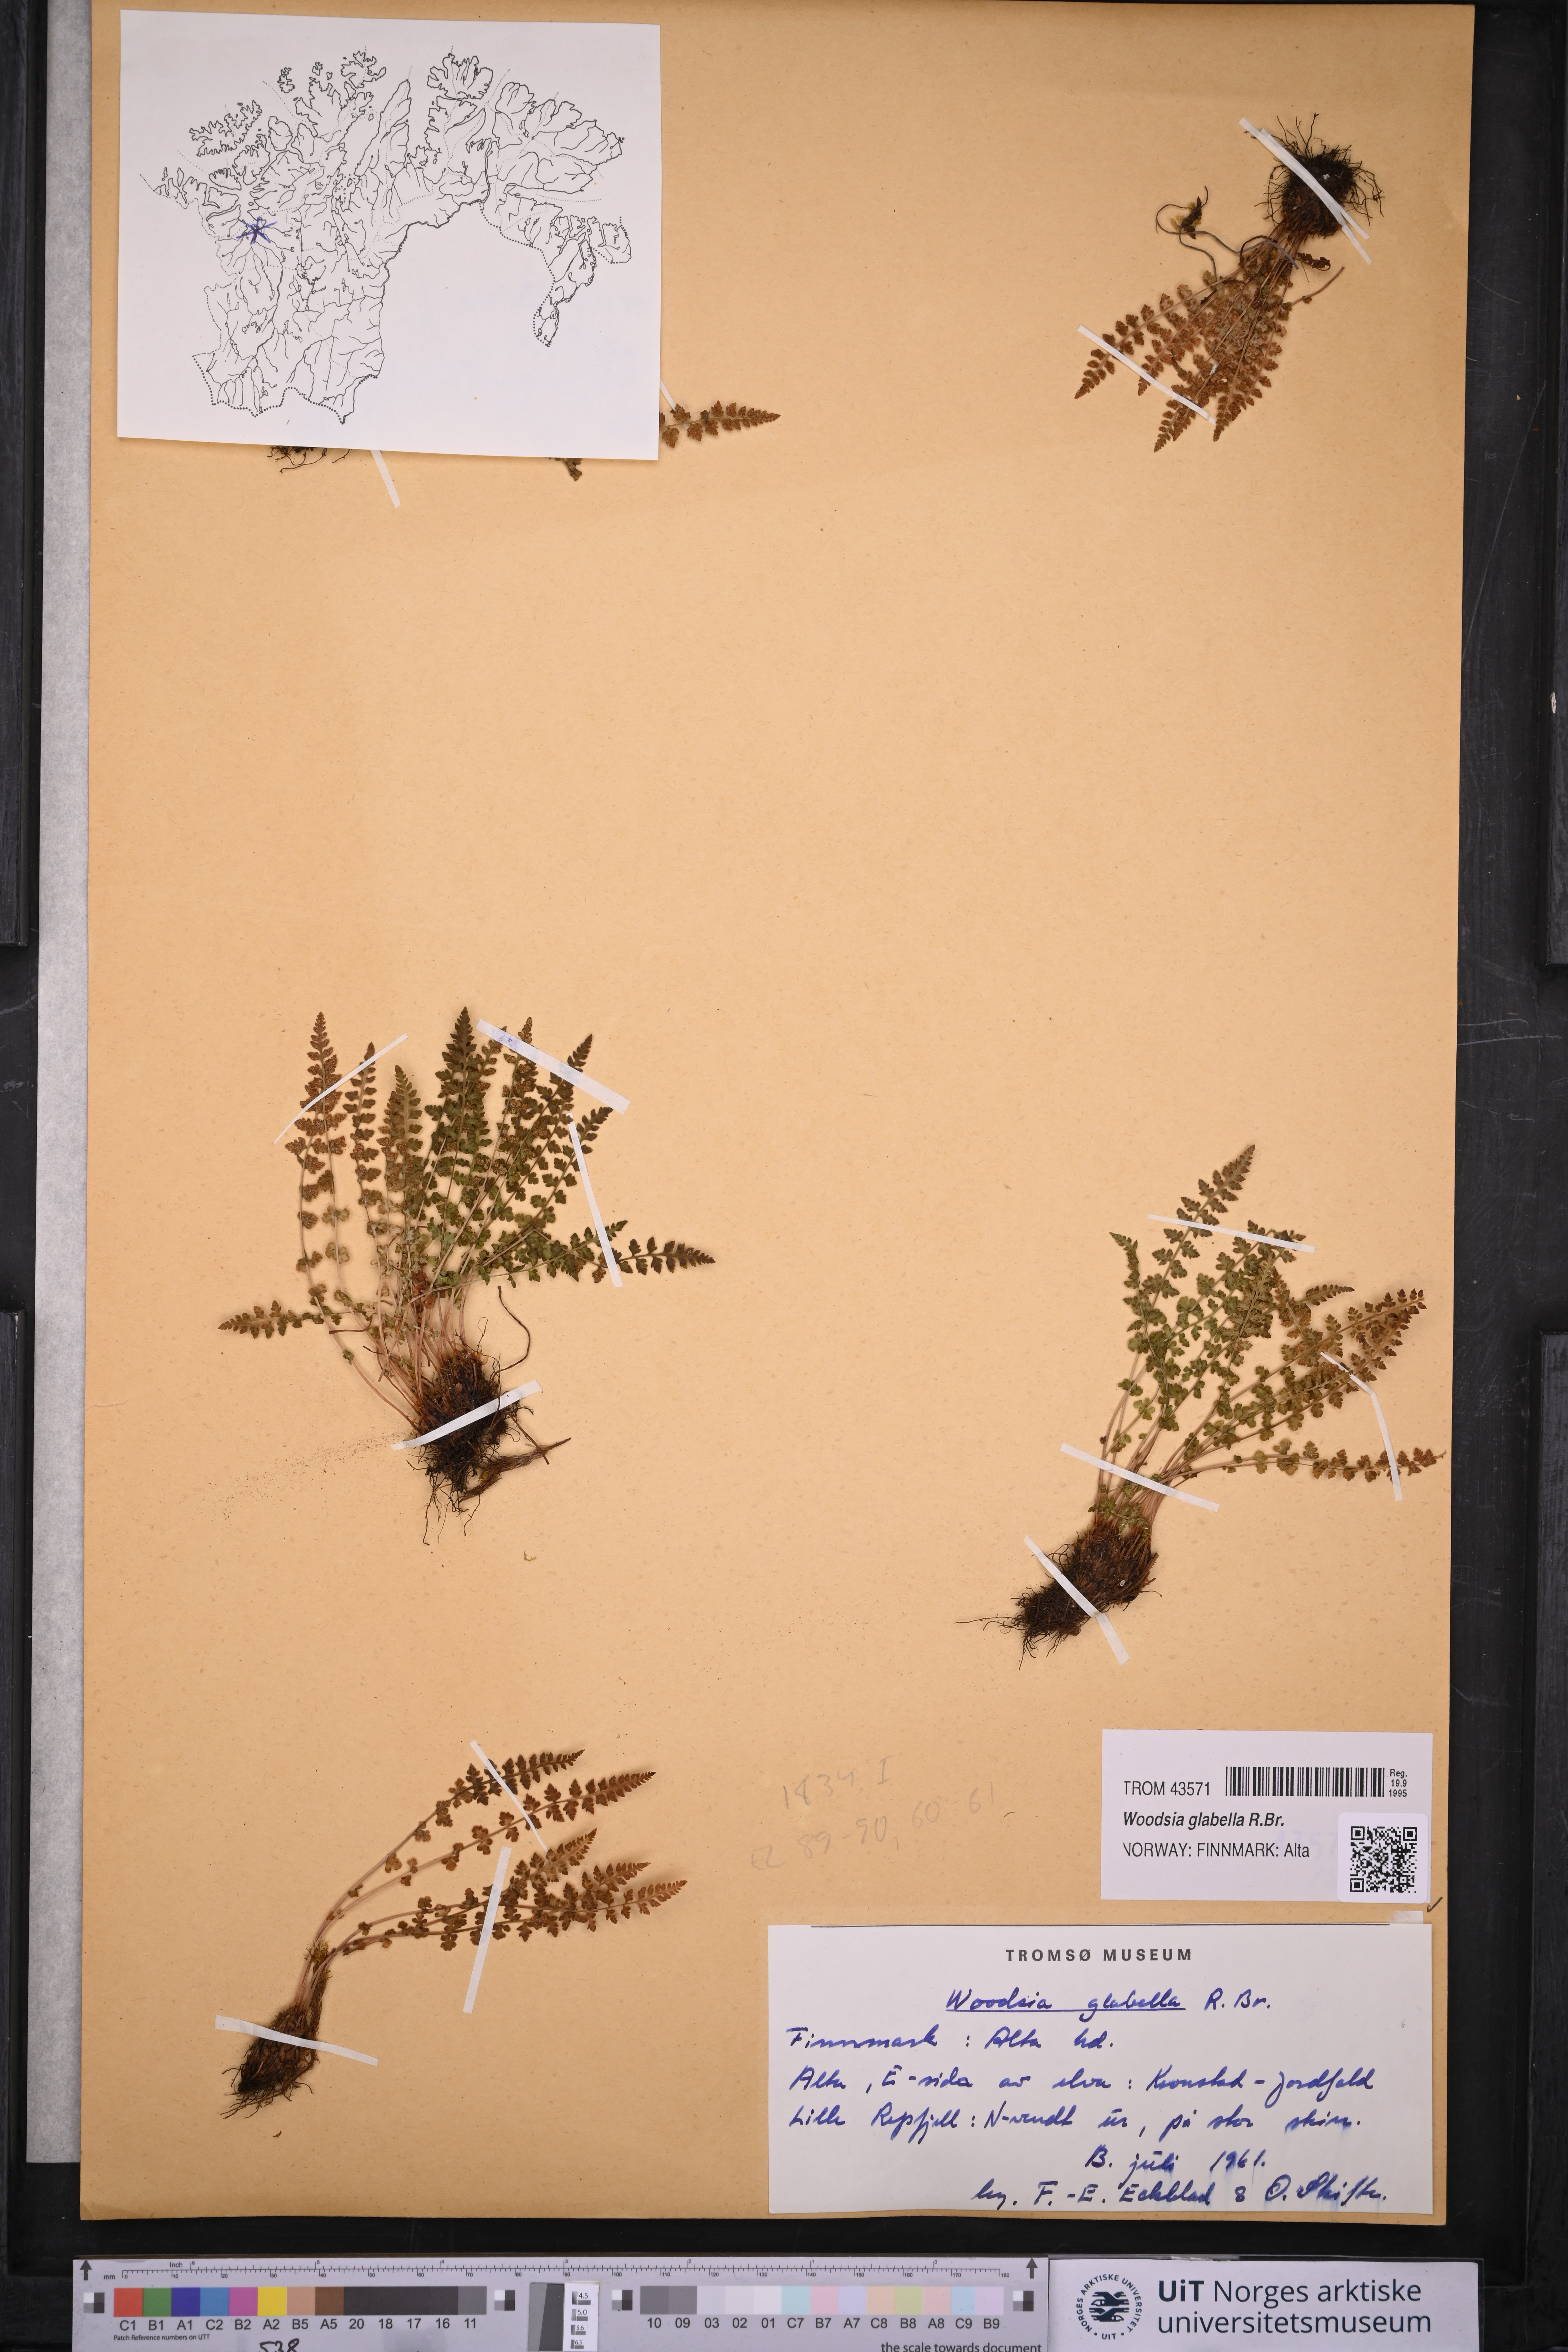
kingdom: Plantae
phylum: Tracheophyta
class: Polypodiopsida
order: Polypodiales
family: Woodsiaceae
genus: Woodsia
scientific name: Woodsia glabella
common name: Smooth woodsia
